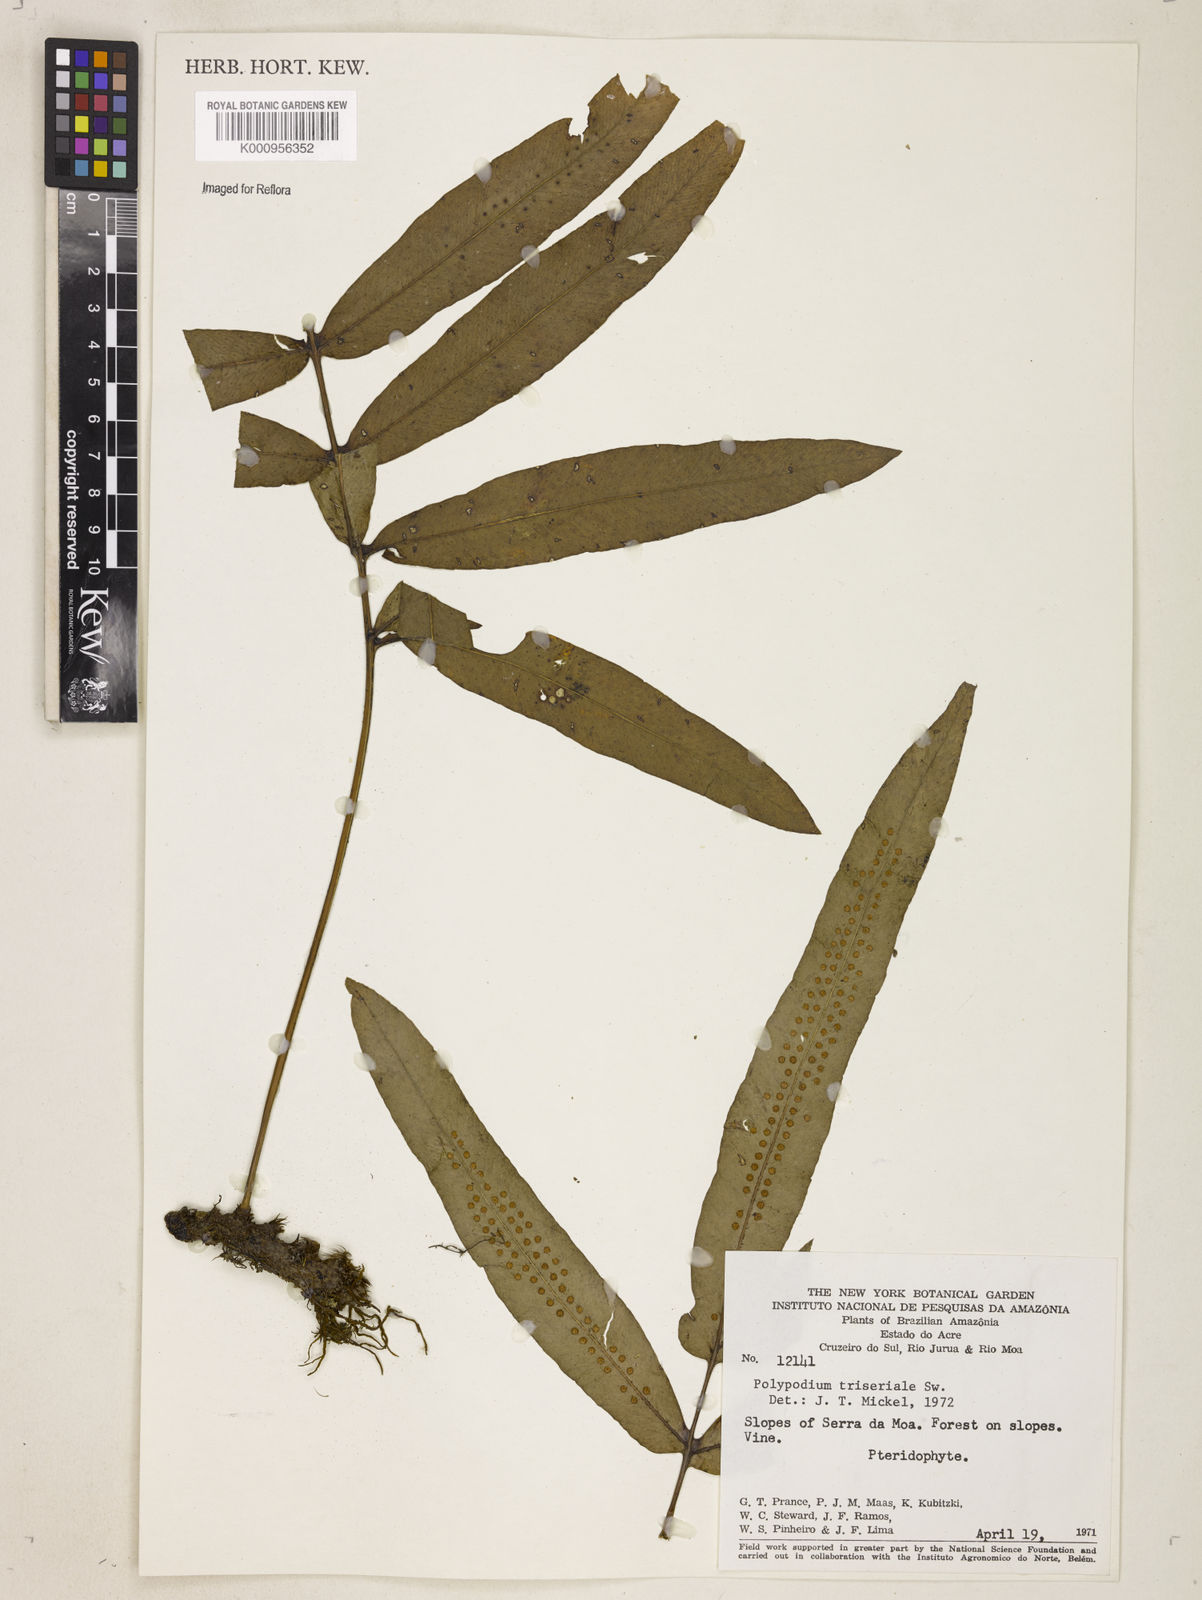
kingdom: Plantae
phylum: Tracheophyta
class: Polypodiopsida
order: Polypodiales
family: Polypodiaceae
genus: Serpocaulon
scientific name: Serpocaulon triseriale
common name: Angle-vein fern
